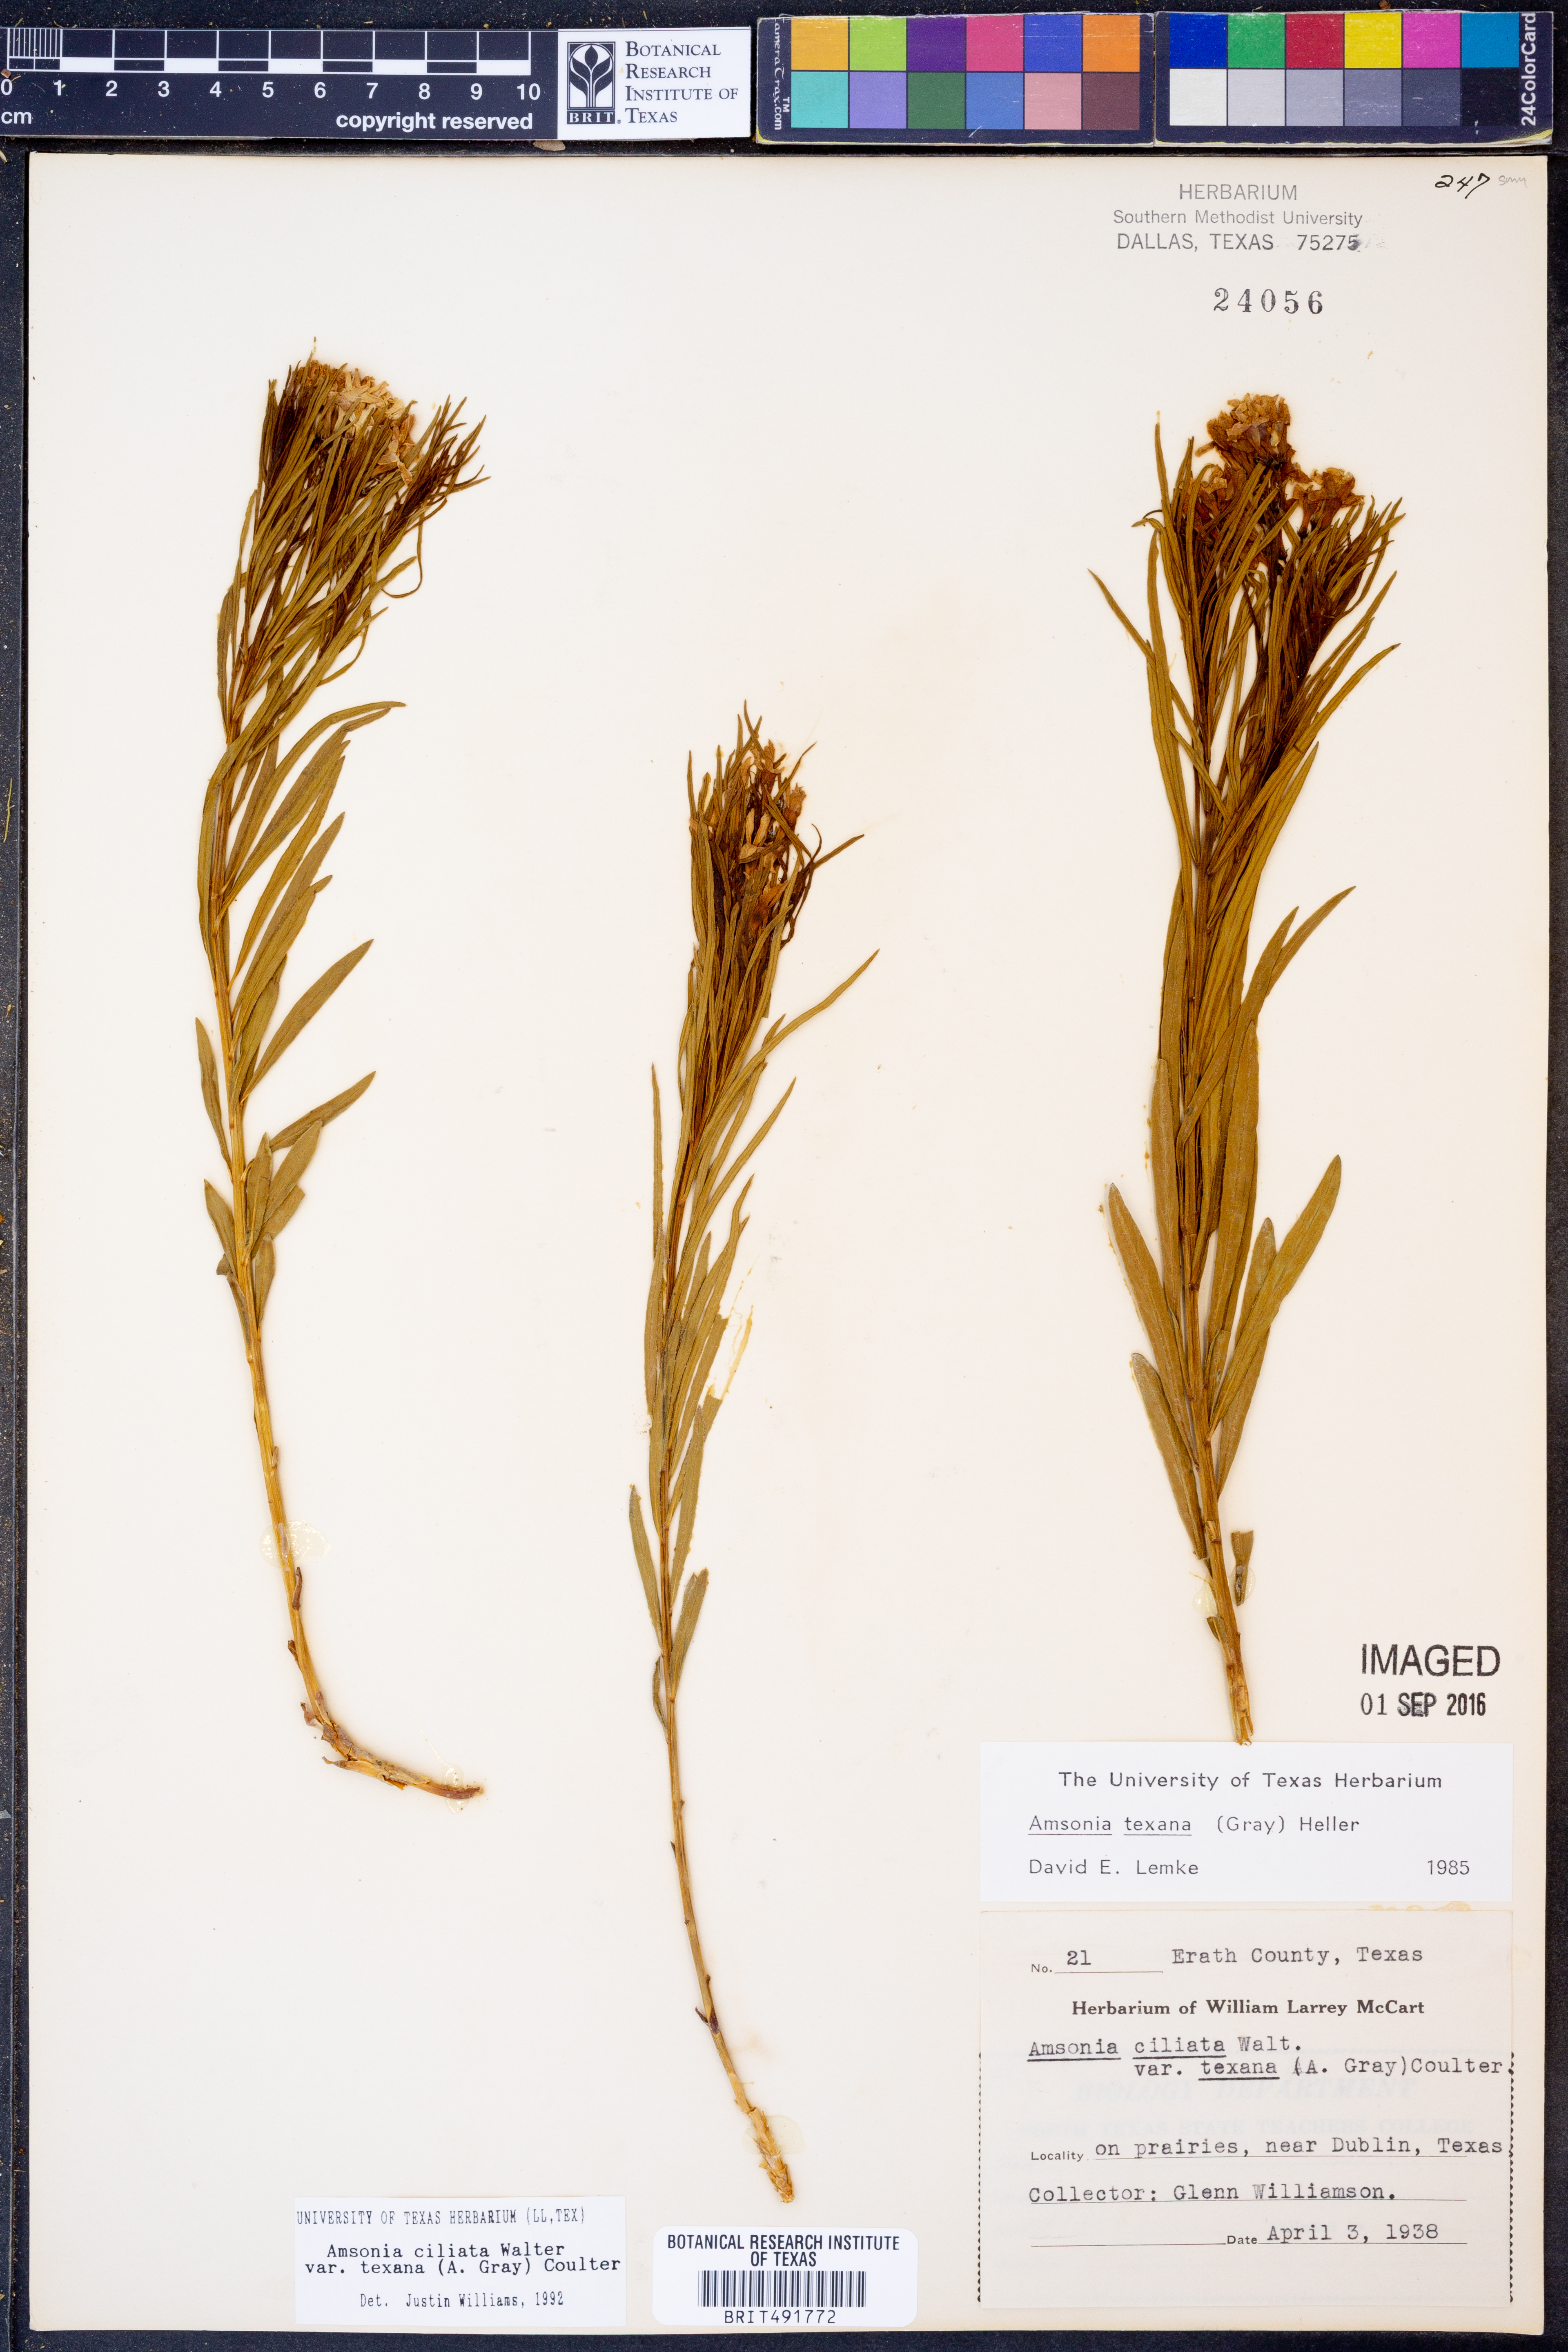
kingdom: Plantae
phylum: Tracheophyta
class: Magnoliopsida
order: Gentianales
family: Apocynaceae
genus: Amsonia
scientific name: Amsonia ciliata
